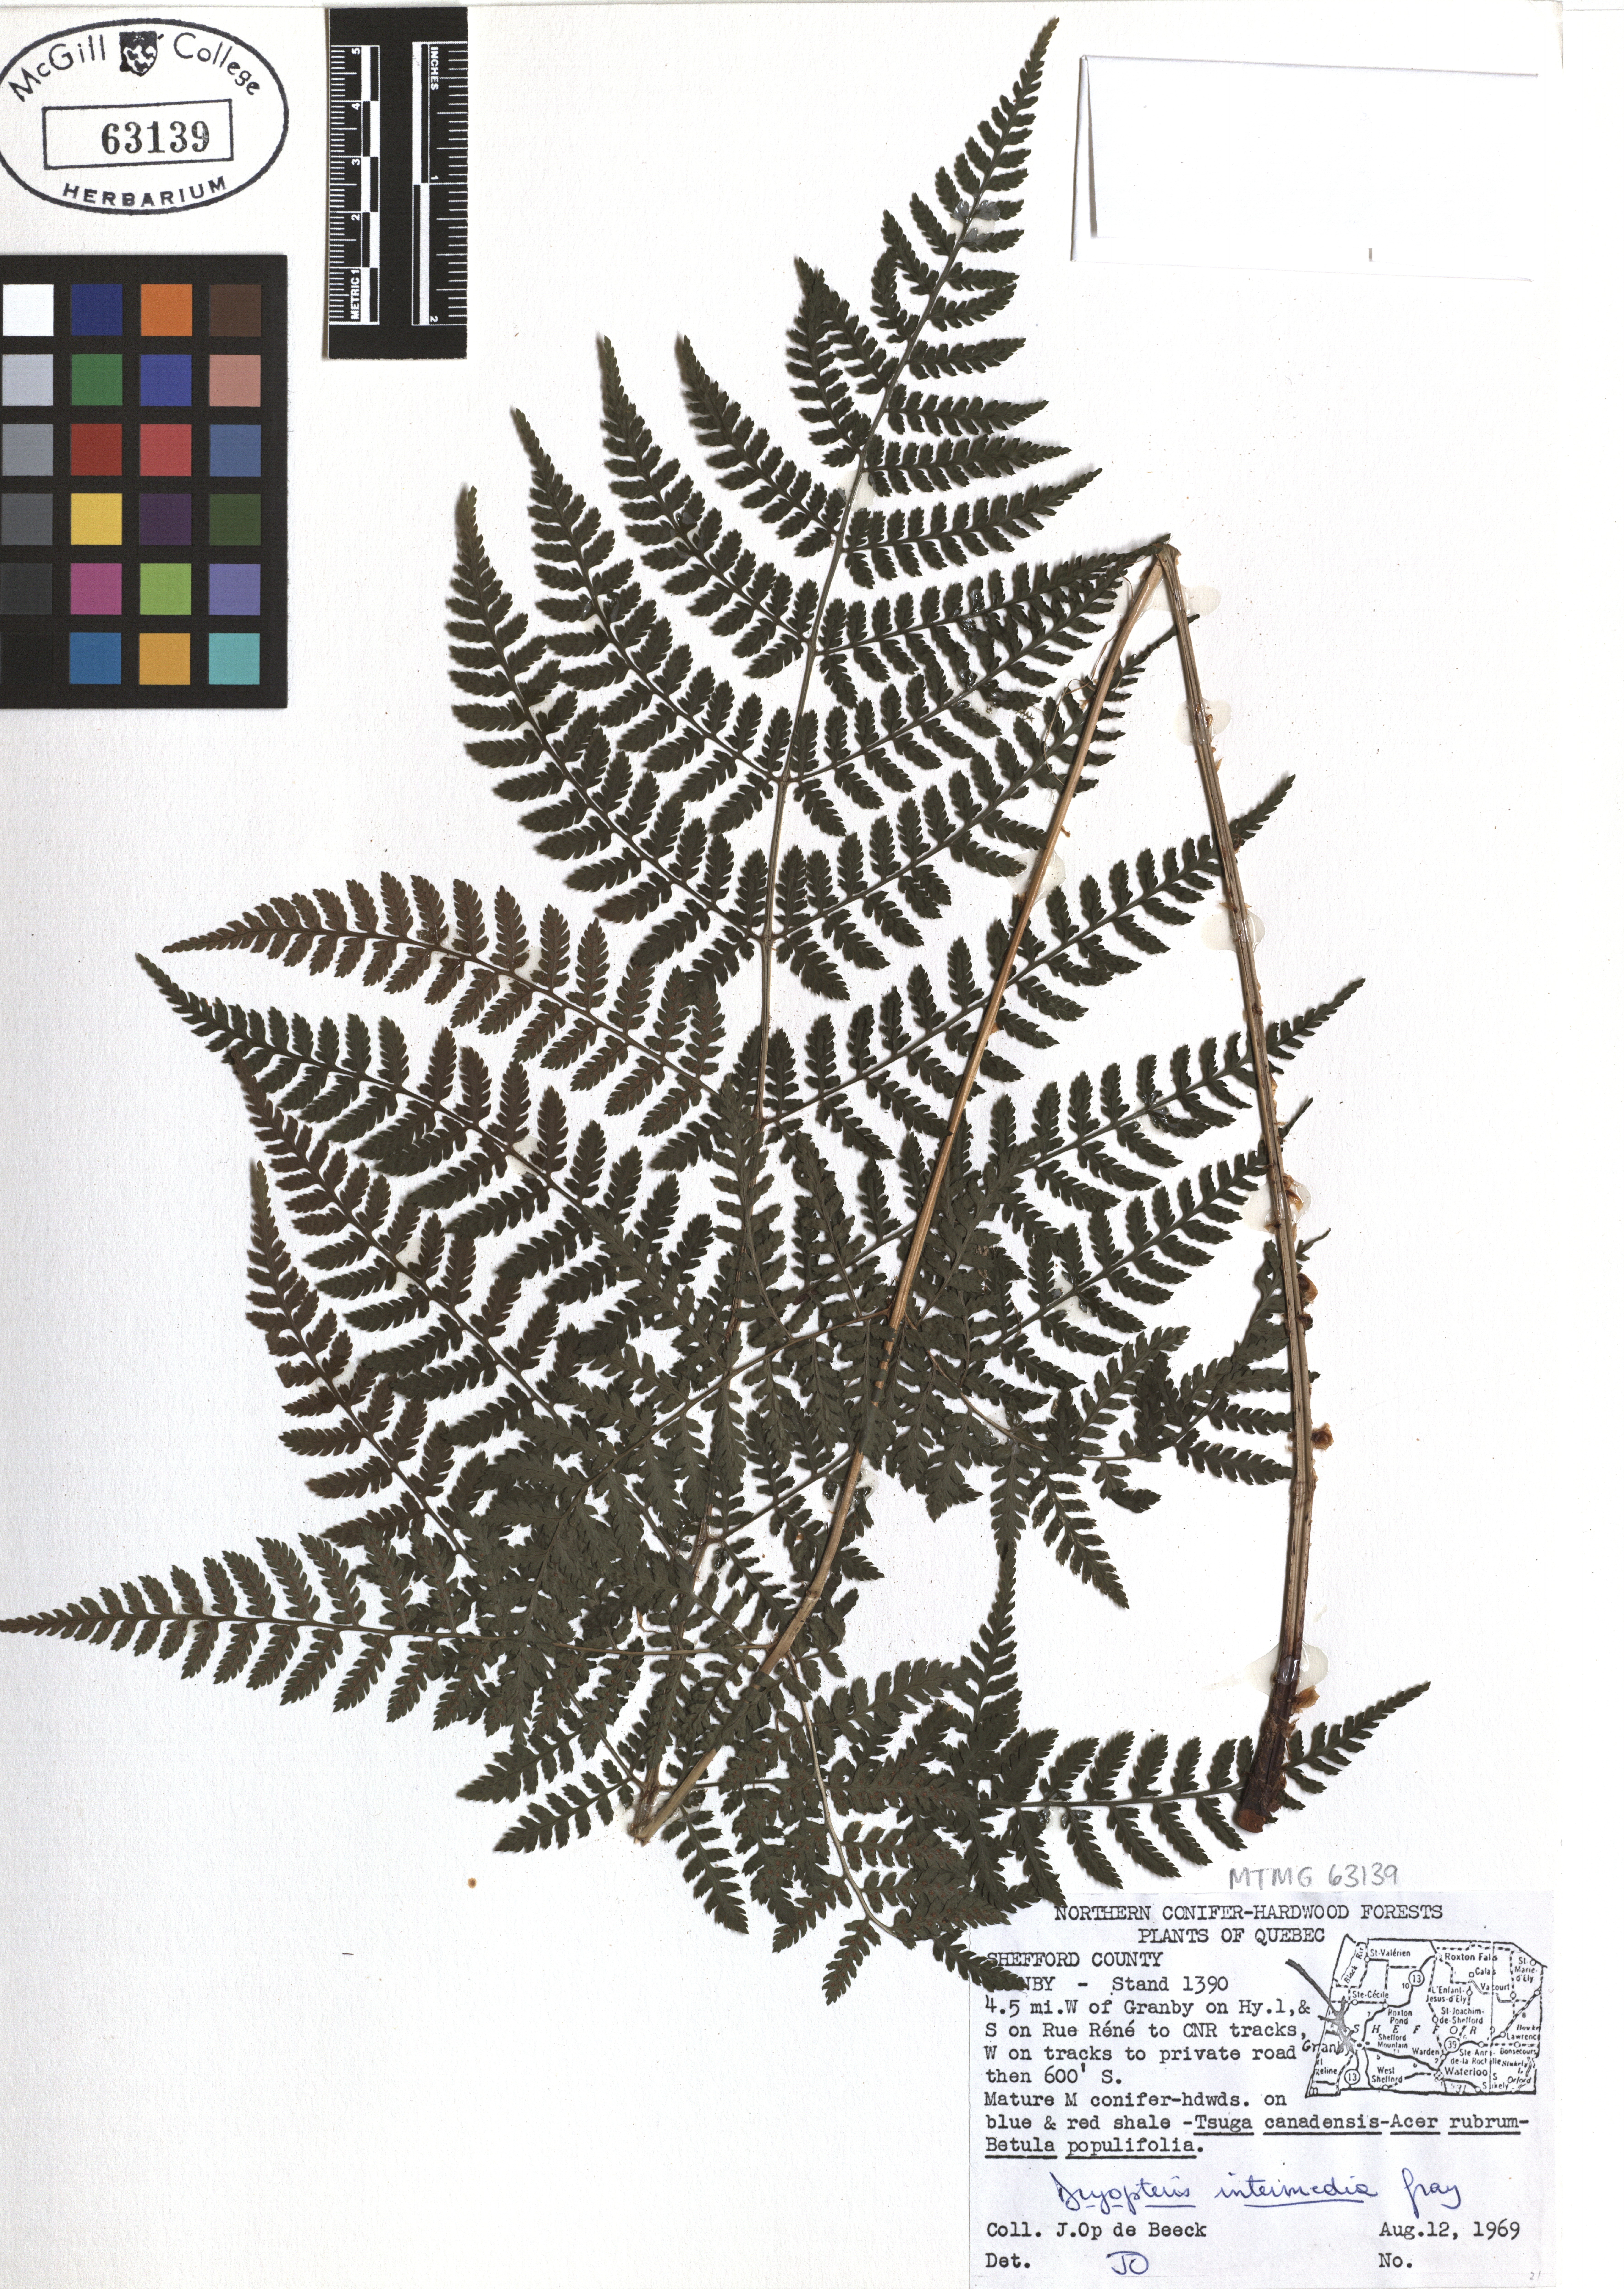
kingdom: Plantae
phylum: Tracheophyta
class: Polypodiopsida
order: Polypodiales
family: Dryopteridaceae
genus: Dryopteris
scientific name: Dryopteris intermedia
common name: Evergreen wood fern
